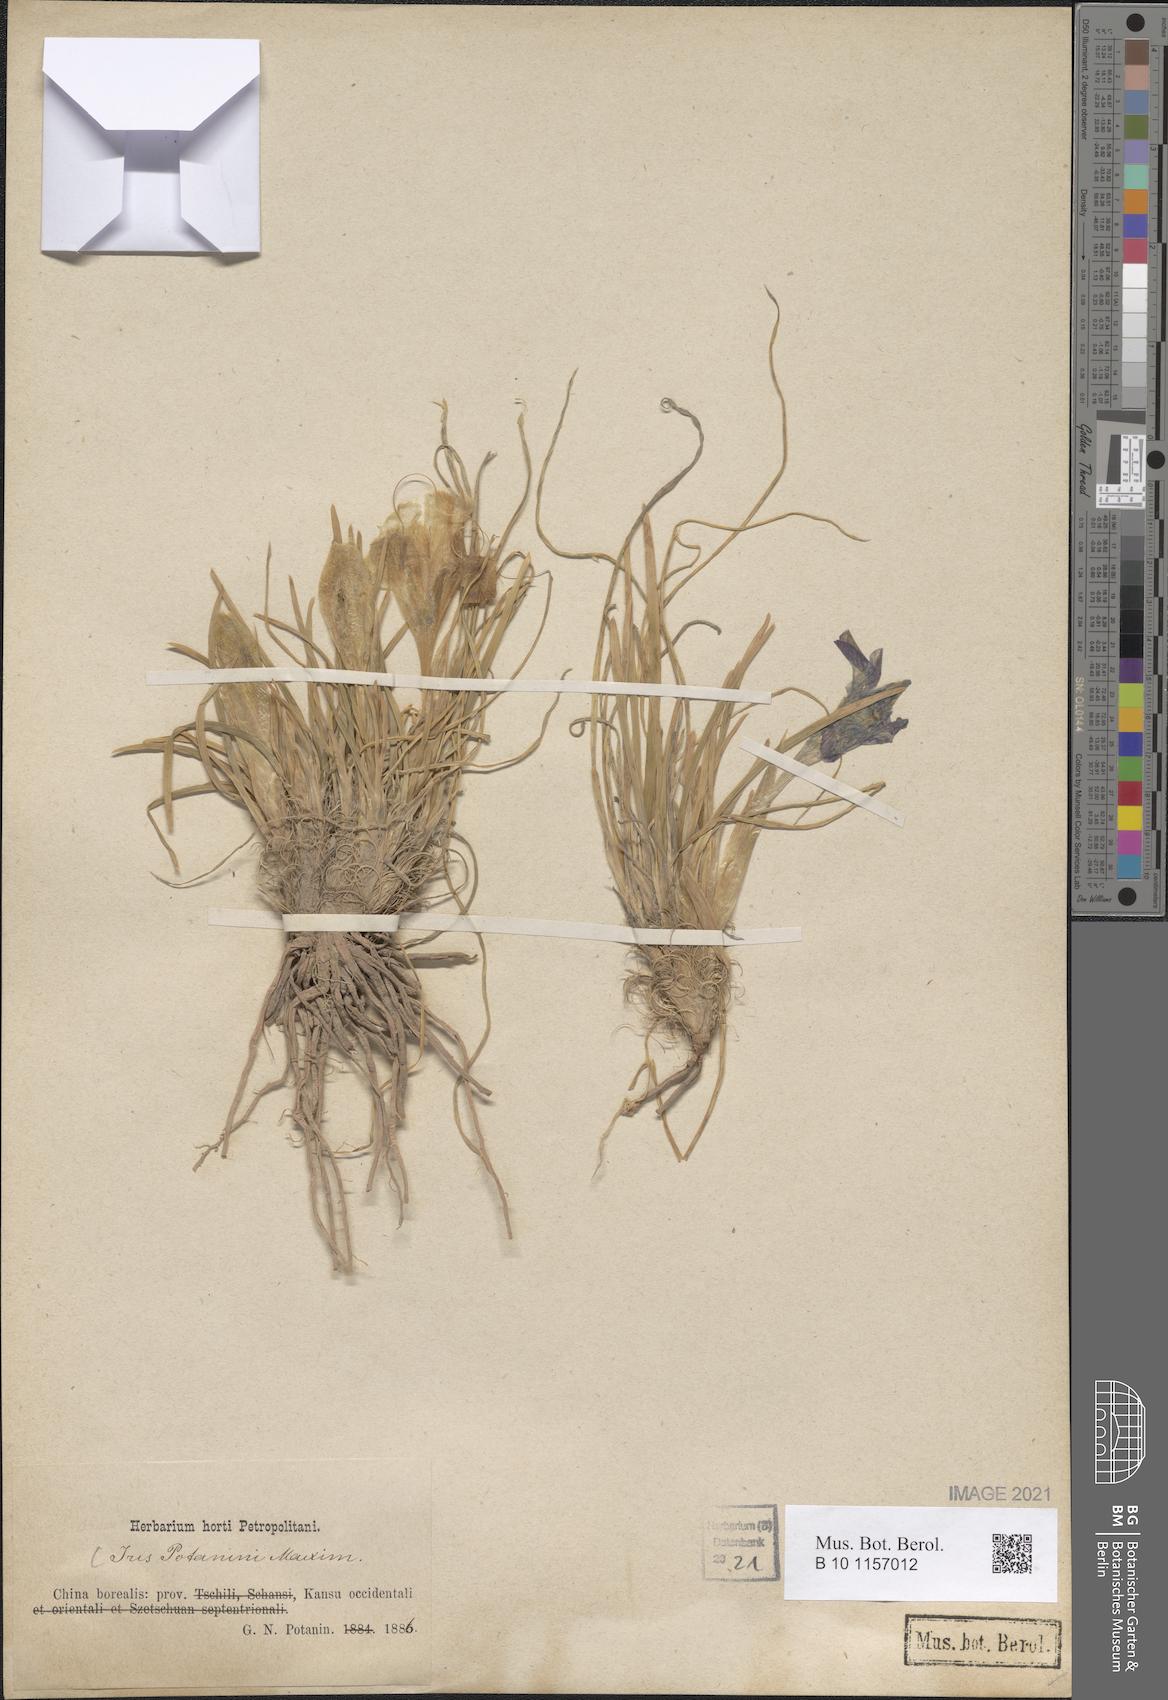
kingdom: Plantae
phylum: Tracheophyta
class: Liliopsida
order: Asparagales
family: Iridaceae
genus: Iris
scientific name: Iris potaninii
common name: Curl-sheath iris
